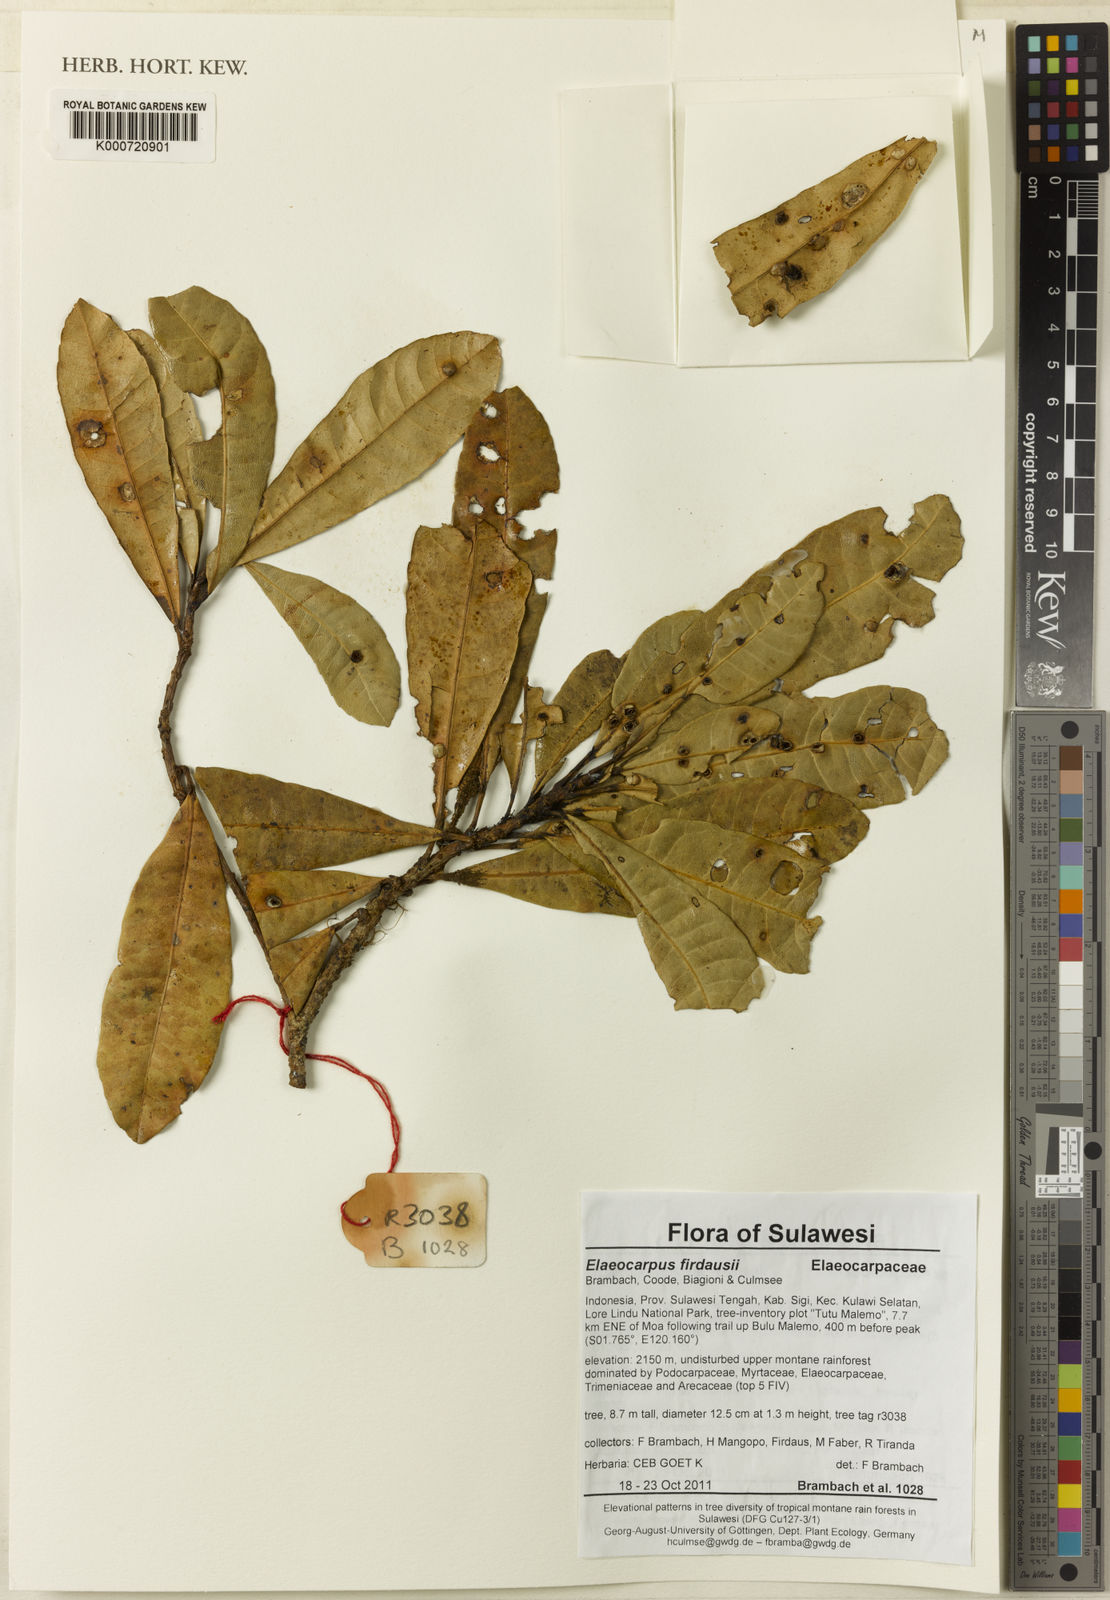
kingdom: Plantae
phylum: Tracheophyta
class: Magnoliopsida
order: Oxalidales
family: Elaeocarpaceae
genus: Elaeocarpus
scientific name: Elaeocarpus firdausii
